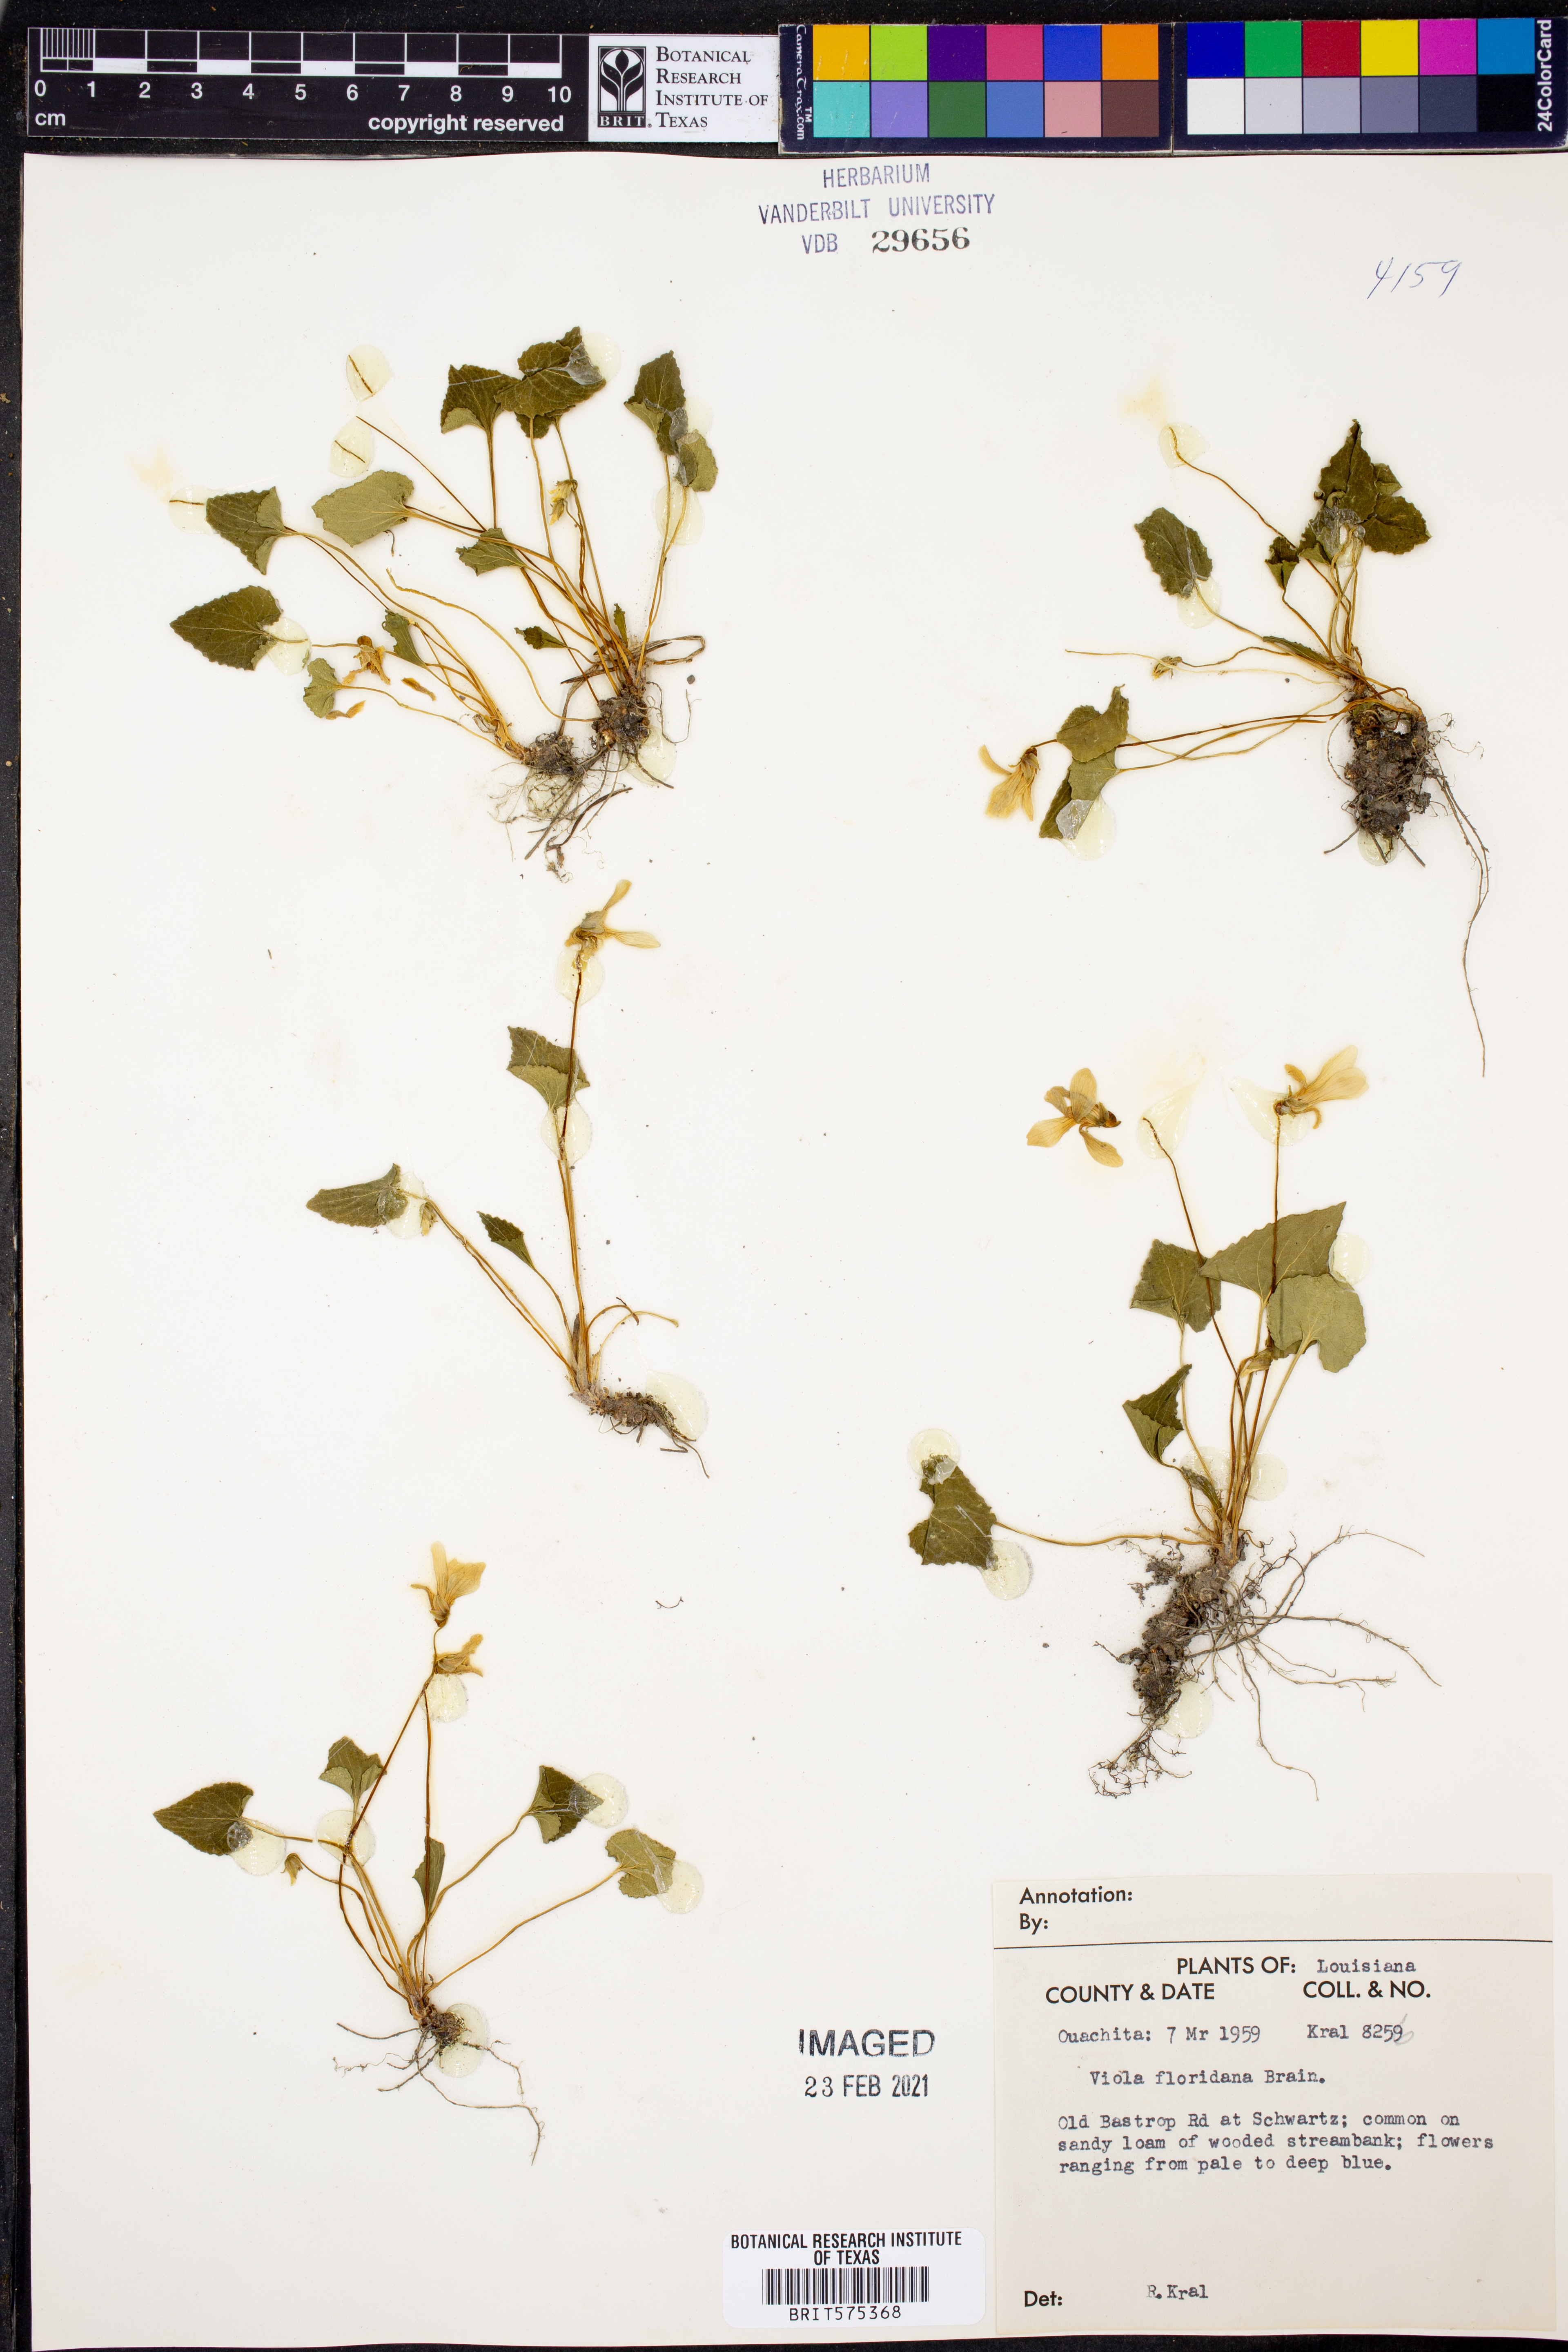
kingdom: Plantae
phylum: Tracheophyta
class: Magnoliopsida
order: Malpighiales
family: Violaceae
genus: Viola
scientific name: Viola floridana
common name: Florida violet
